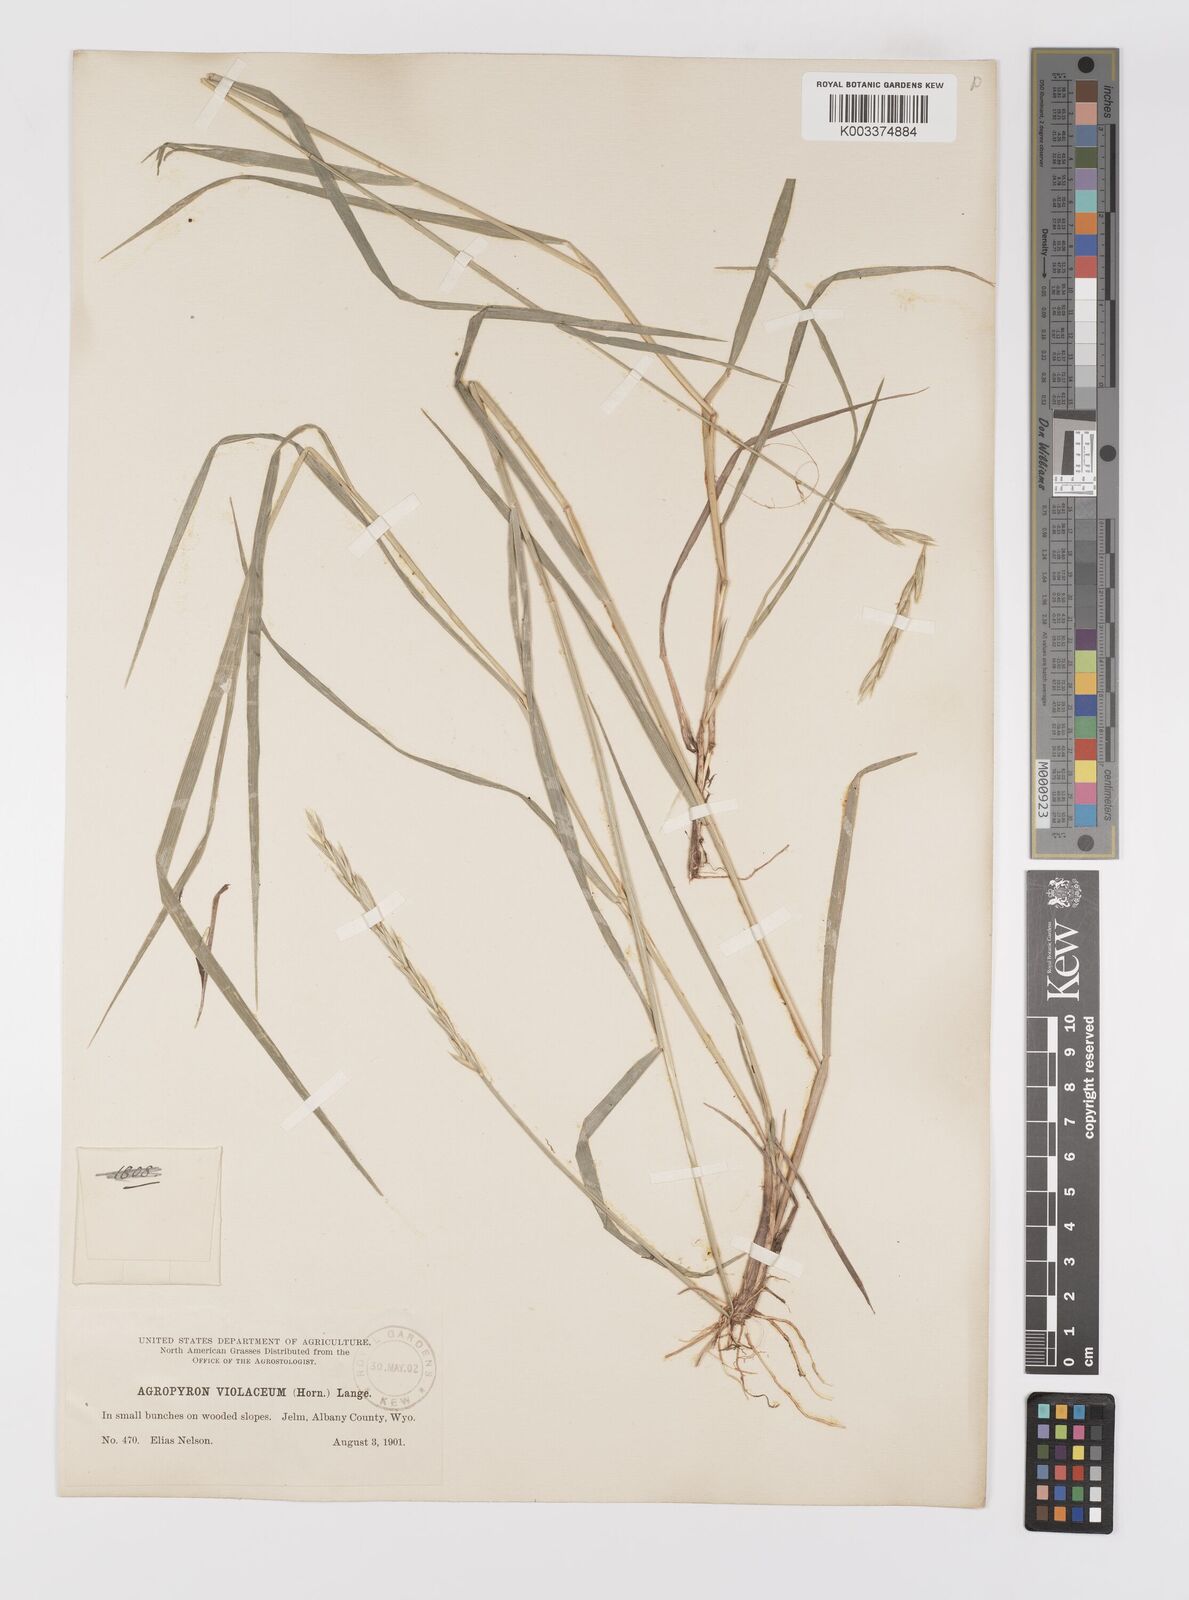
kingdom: Plantae
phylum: Tracheophyta
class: Liliopsida
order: Poales
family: Poaceae
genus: Elymus
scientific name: Elymus violaceus
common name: Arctic wheatgrass
